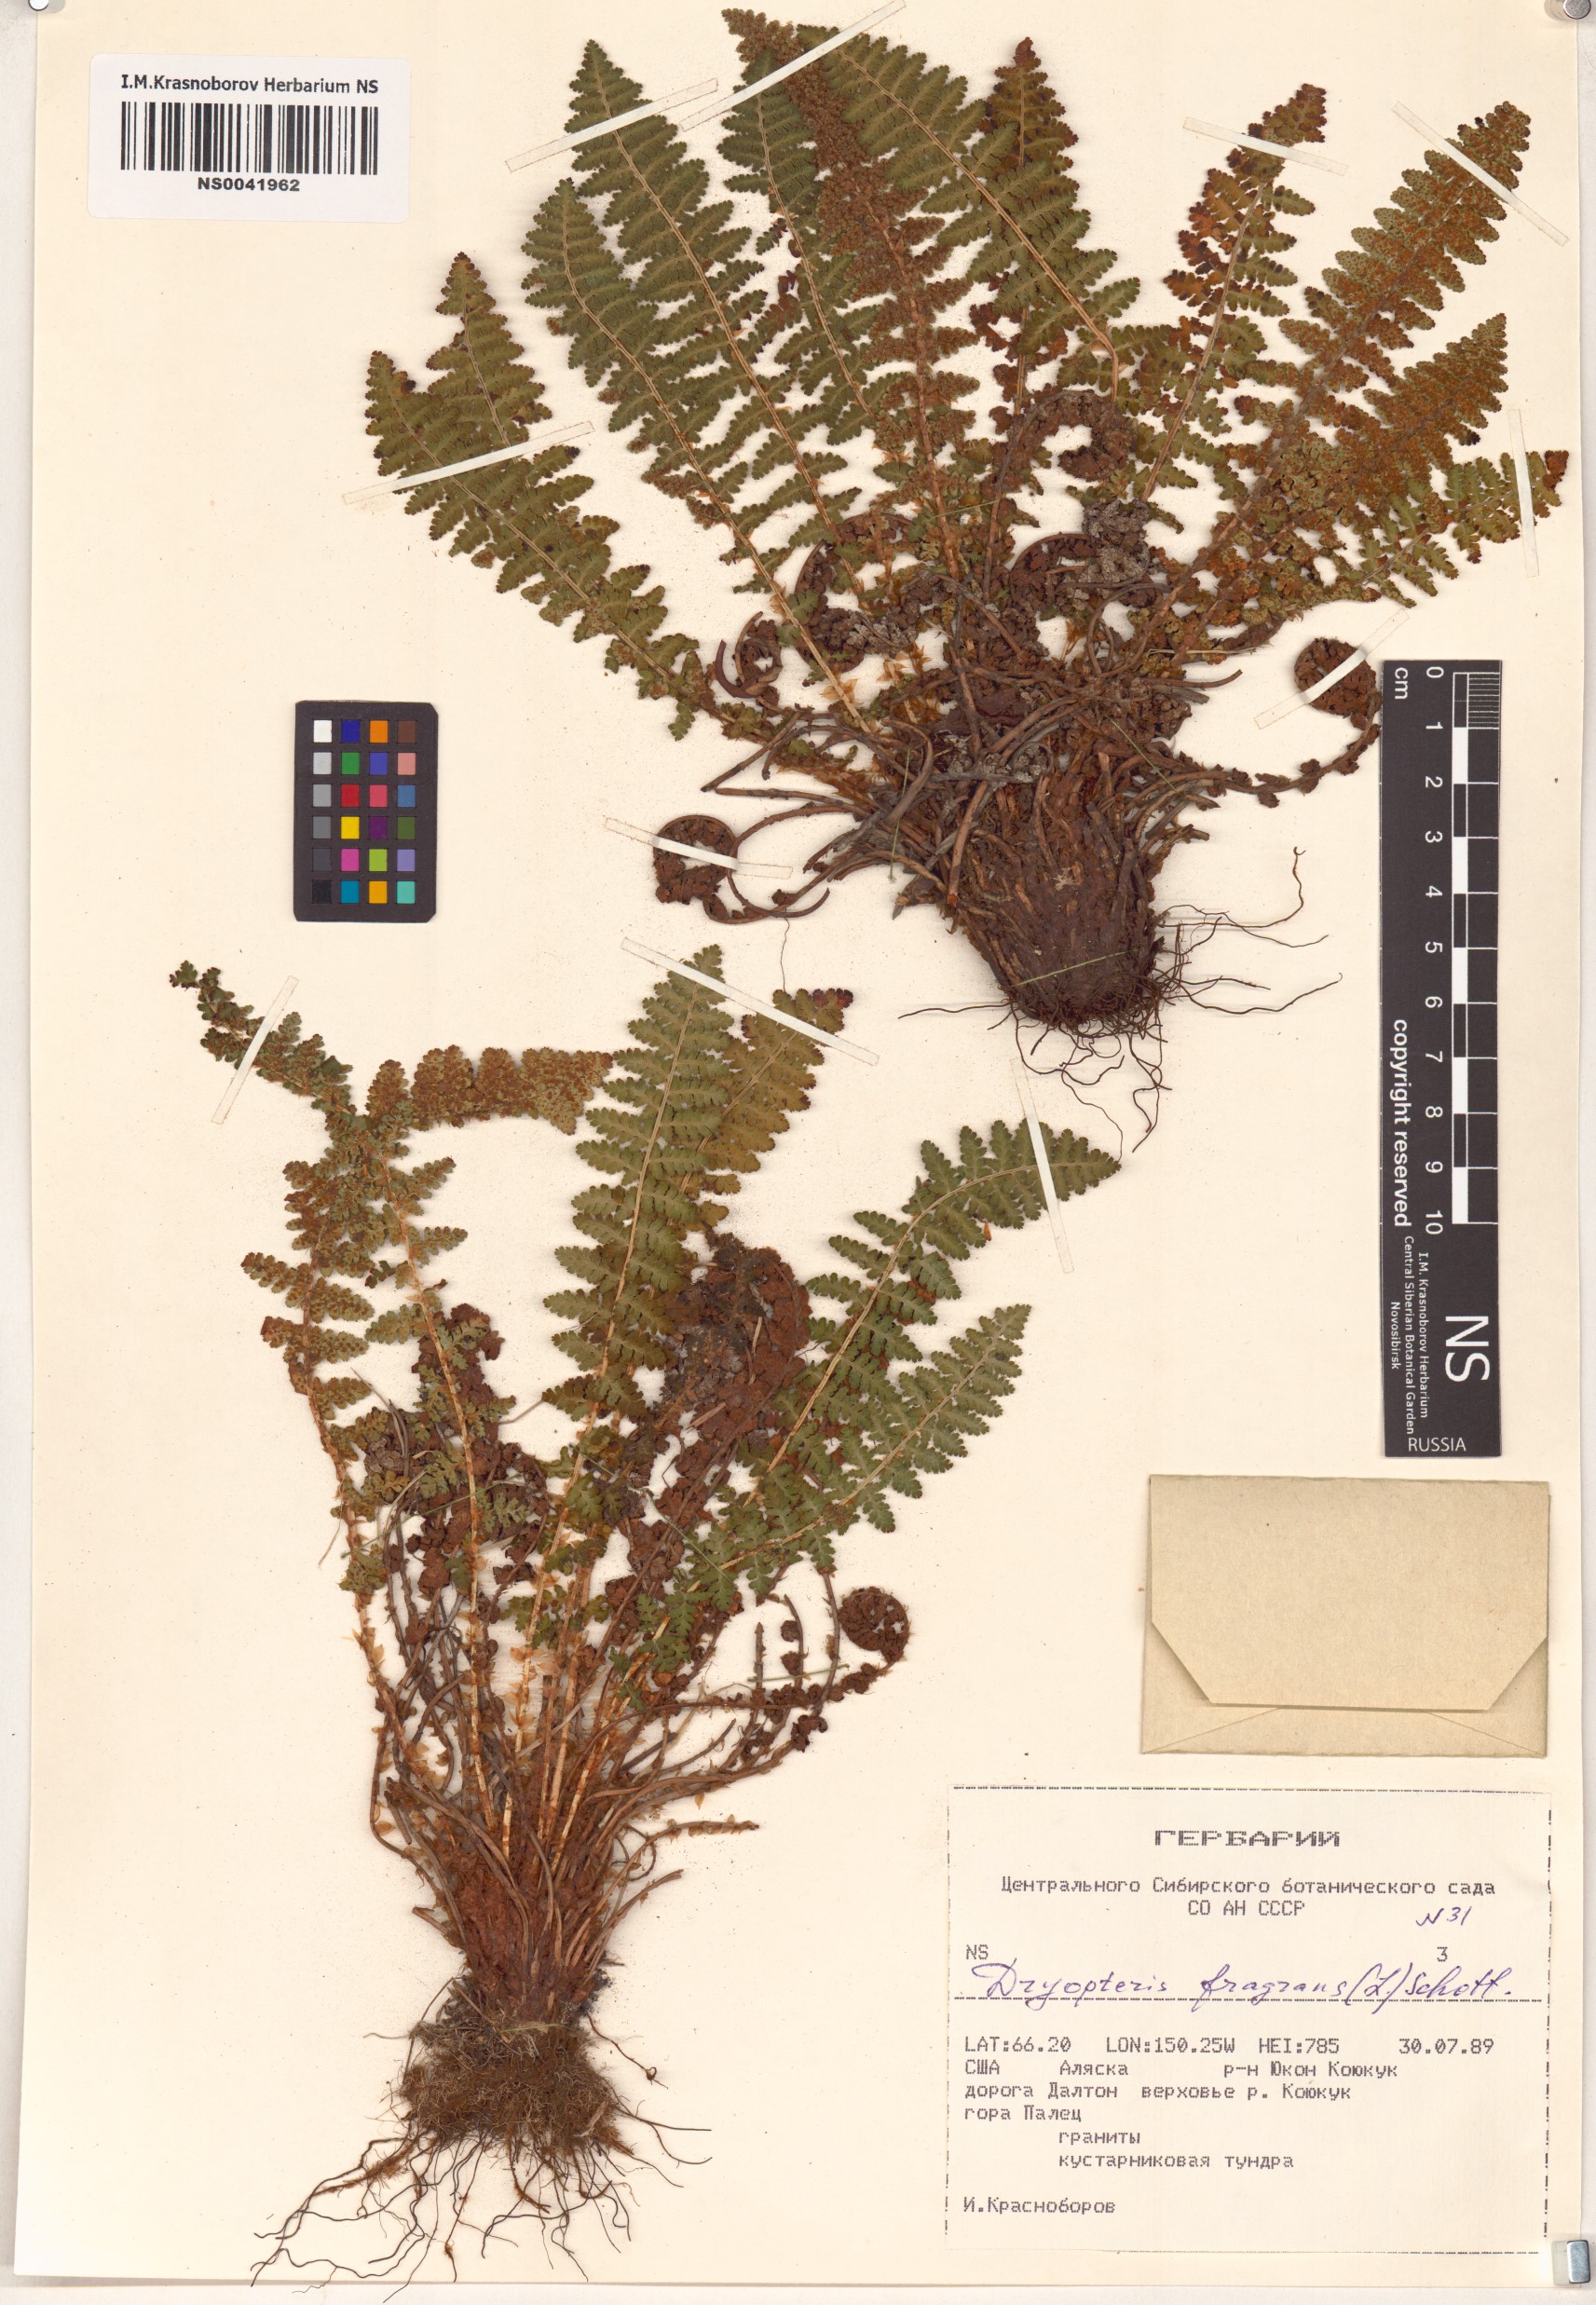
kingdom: Plantae
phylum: Tracheophyta
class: Polypodiopsida
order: Polypodiales
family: Dryopteridaceae
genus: Dryopteris
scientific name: Dryopteris fragrans
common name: Fragrant wood fern
